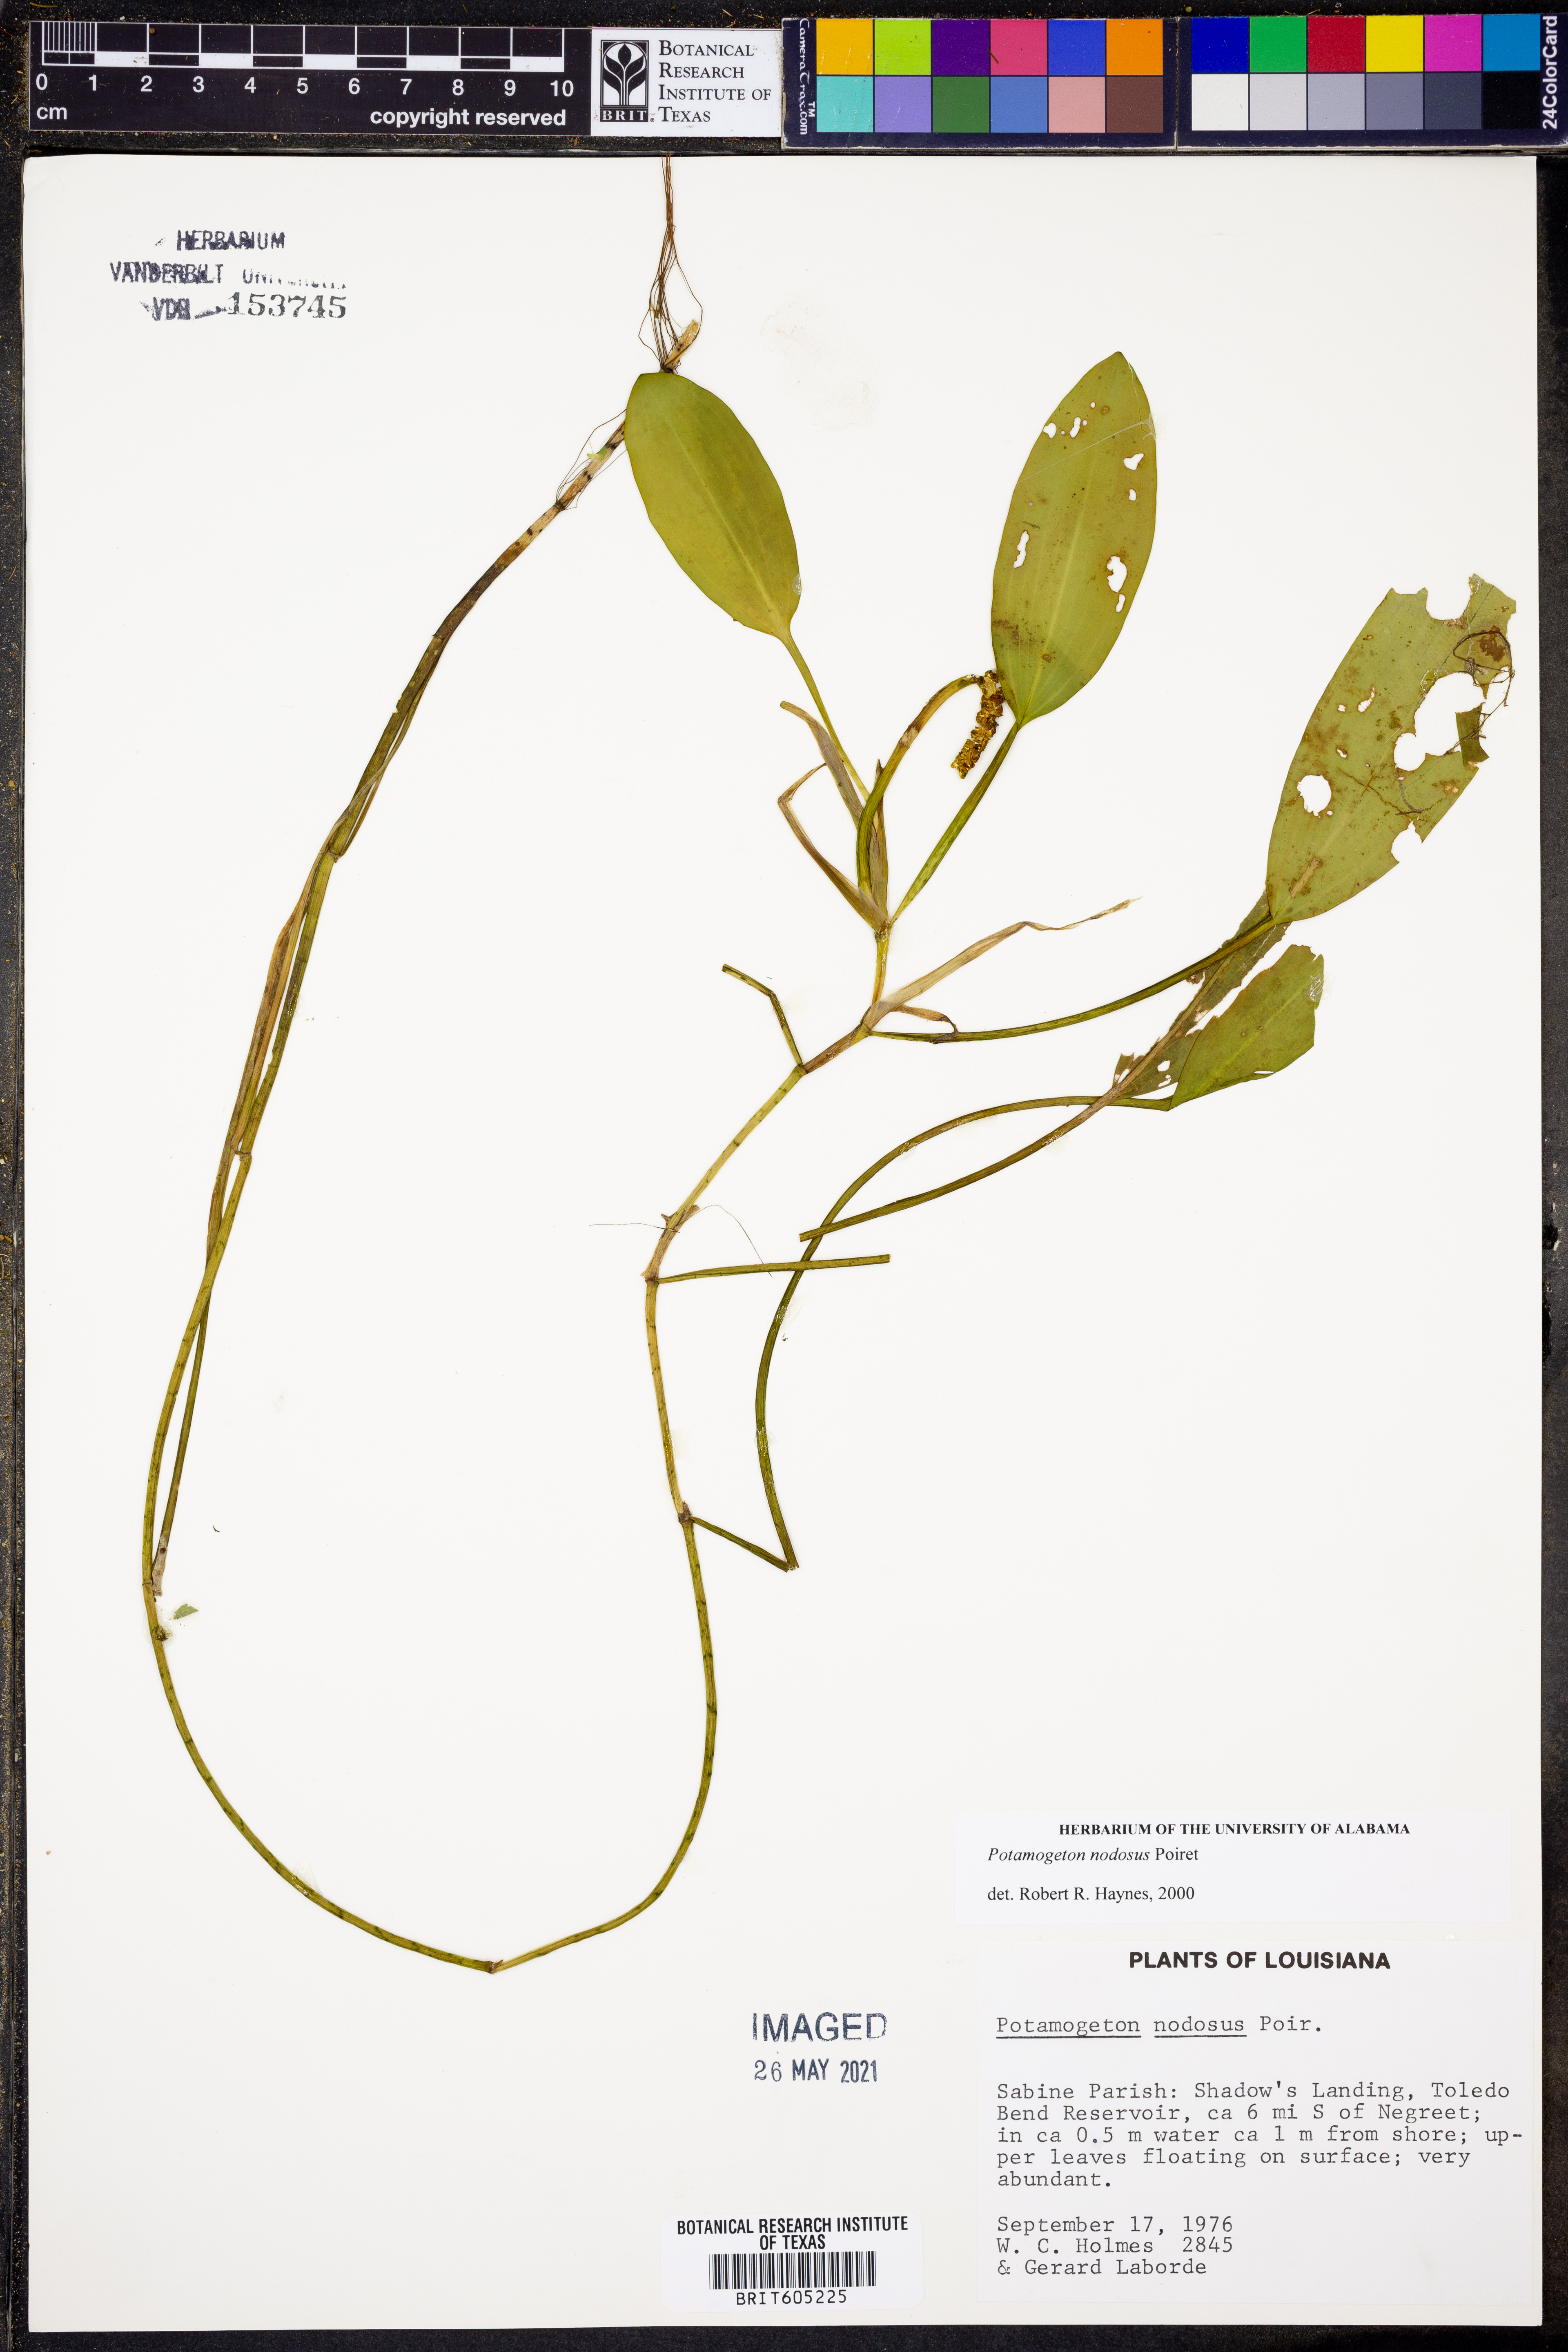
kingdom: Plantae
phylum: Tracheophyta
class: Liliopsida
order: Alismatales
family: Potamogetonaceae
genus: Potamogeton
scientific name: Potamogeton nodosus
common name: Loddon pondweed
